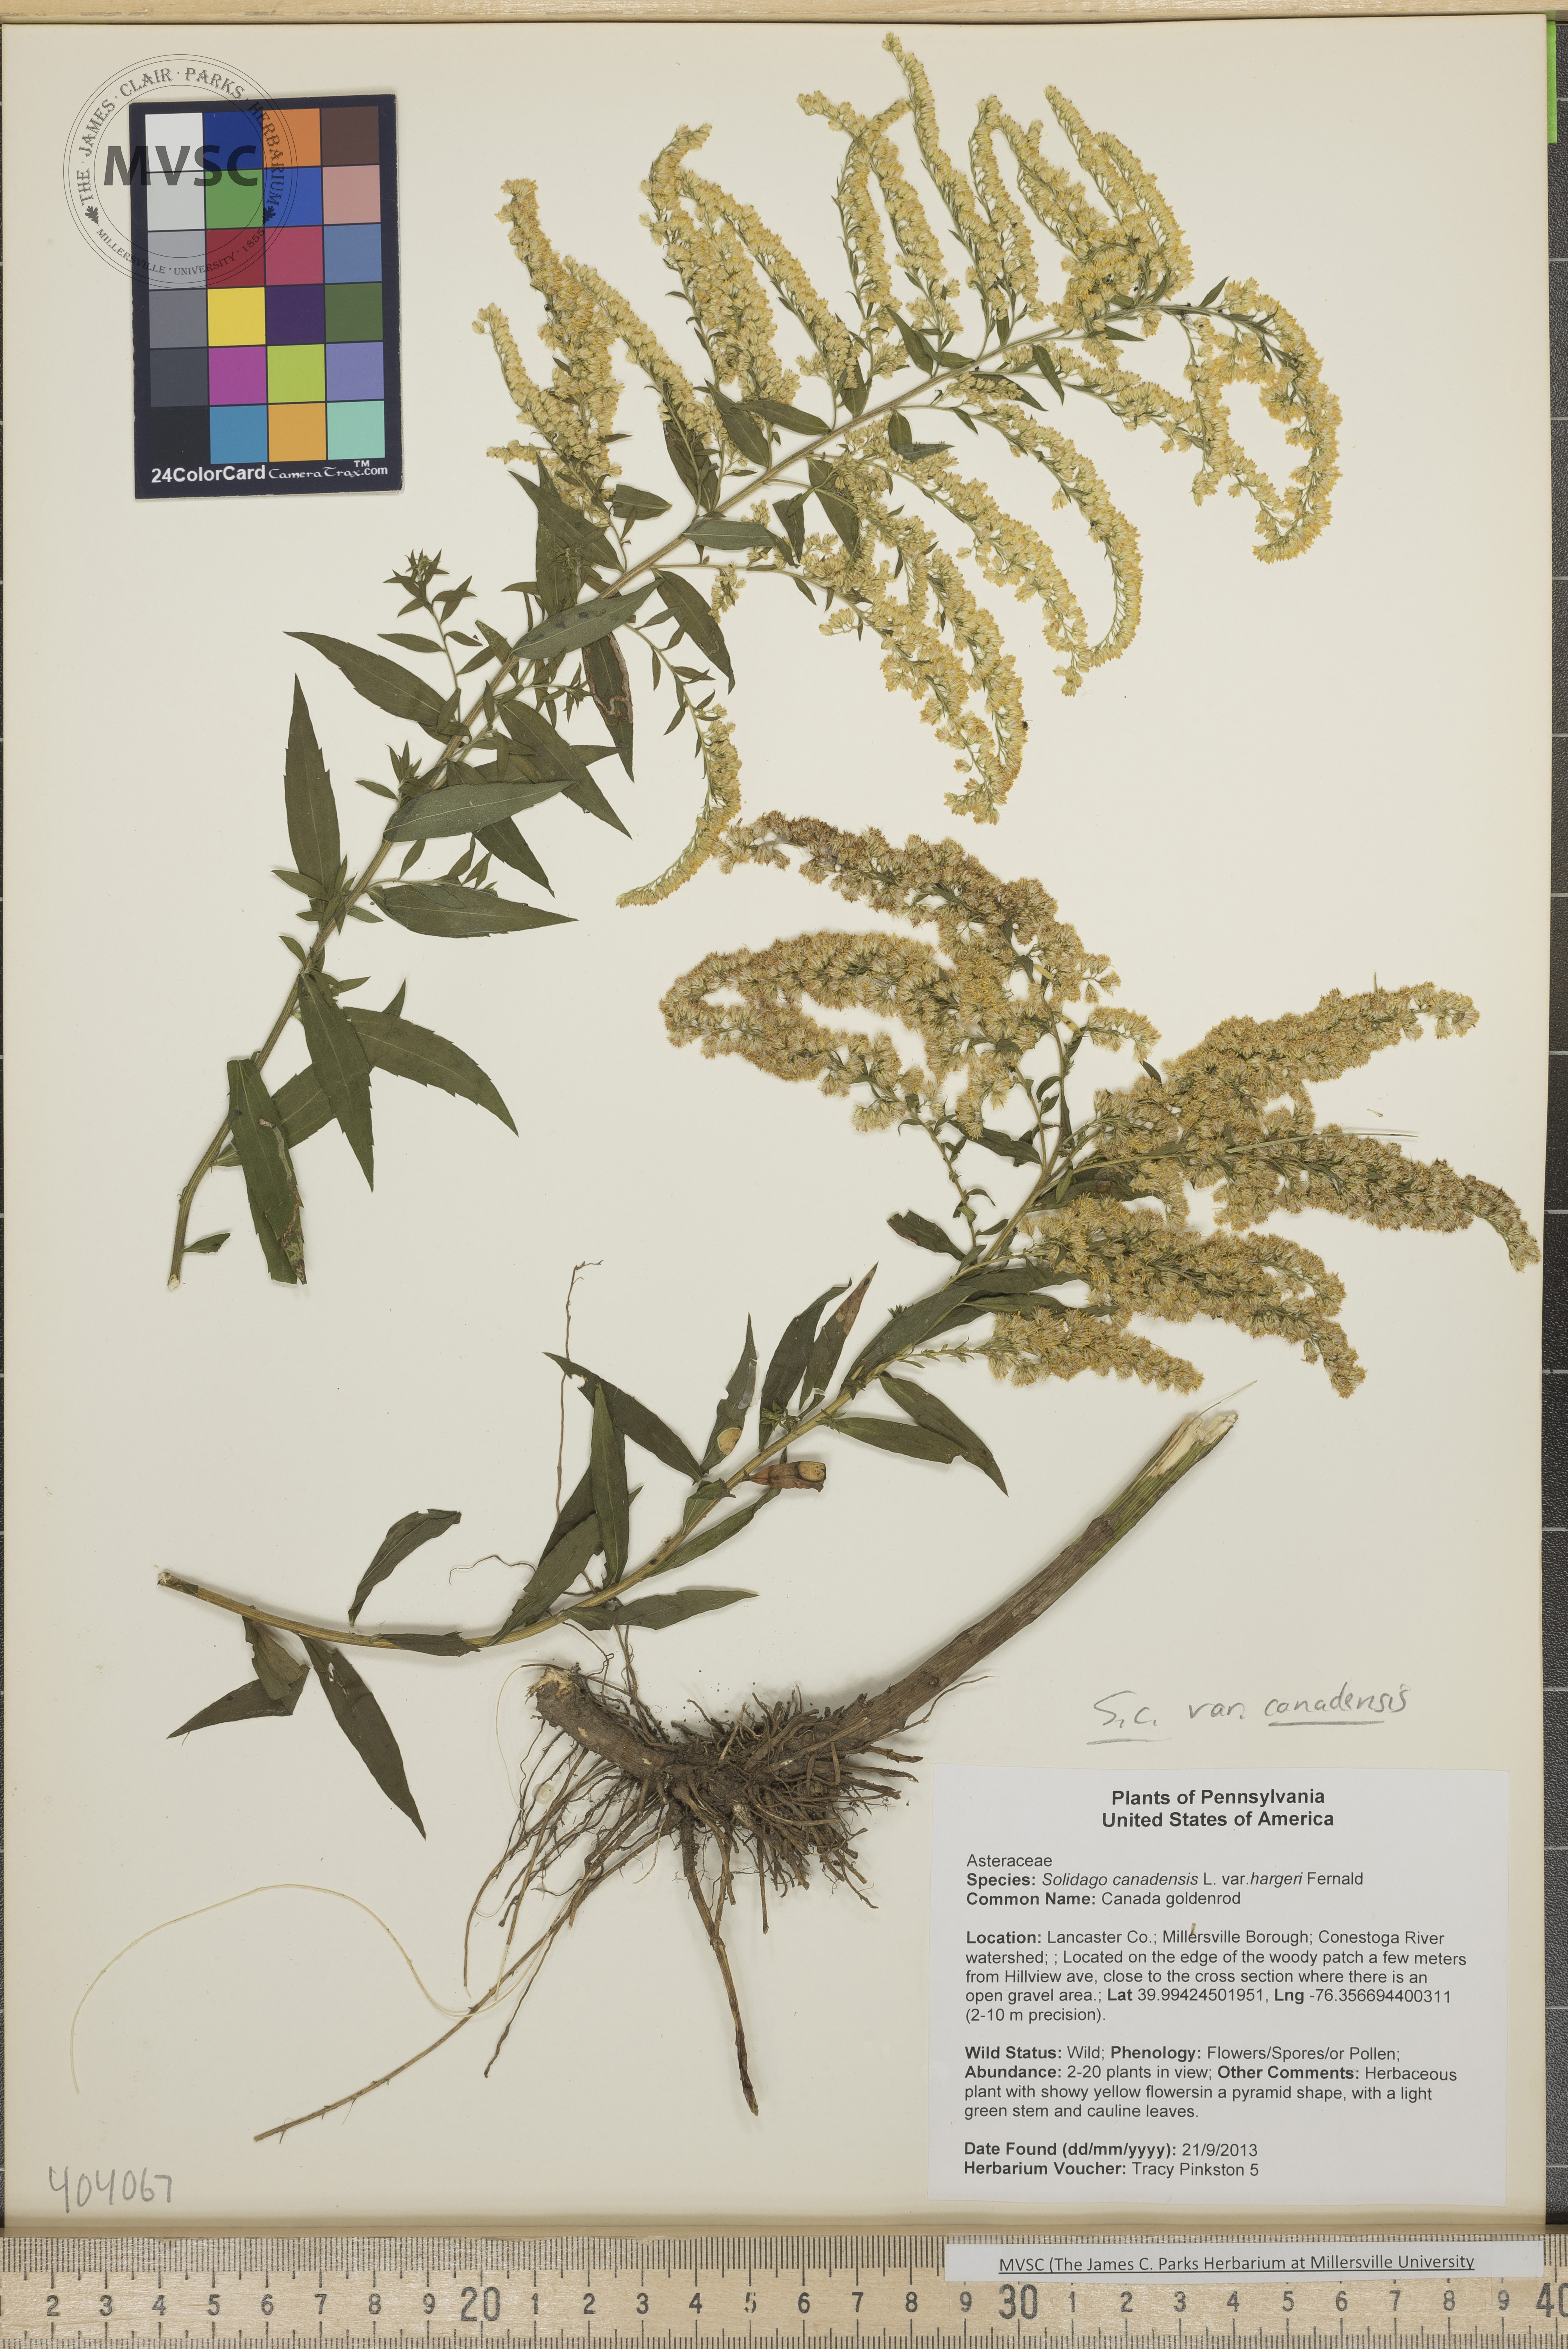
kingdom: Plantae
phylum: Tracheophyta
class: Magnoliopsida
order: Asterales
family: Asteraceae
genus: Solidago
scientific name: Solidago canadensis
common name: Canada goldenrod
